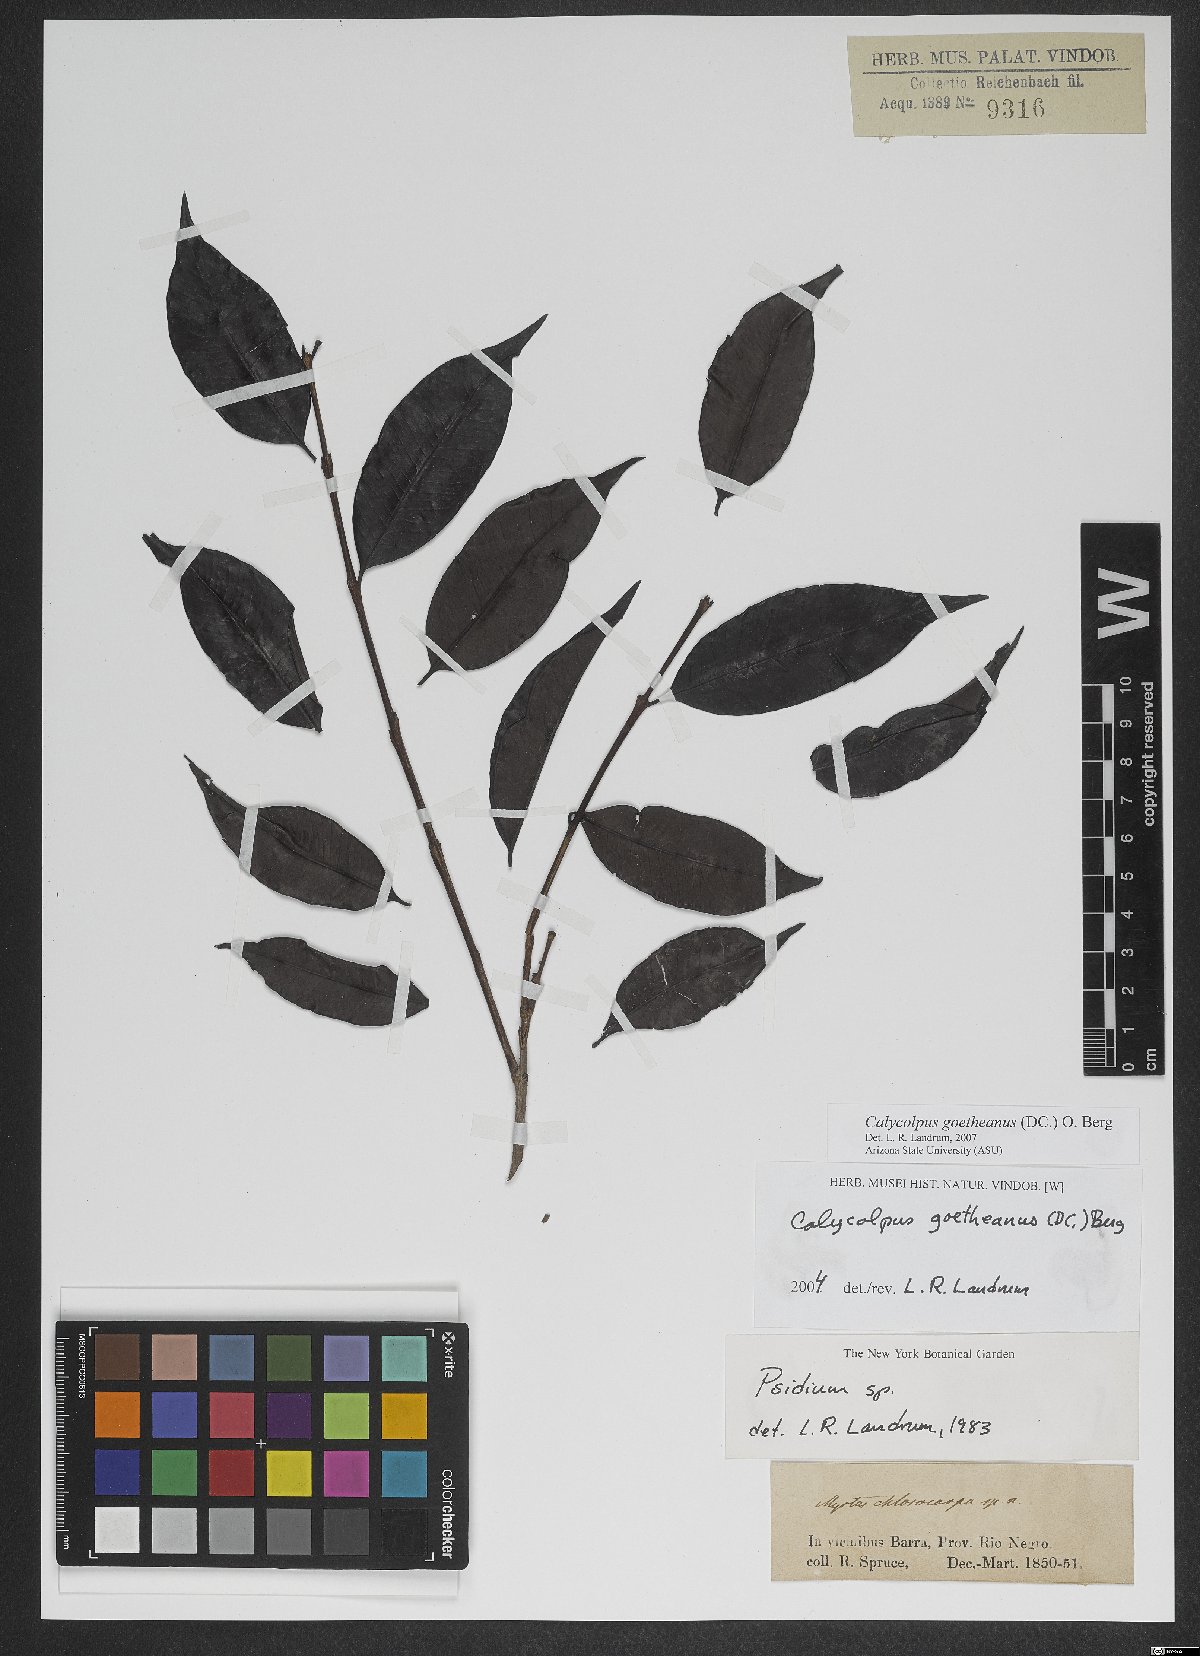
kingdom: Plantae
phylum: Tracheophyta
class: Magnoliopsida
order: Myrtales
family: Myrtaceae
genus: Calycolpus
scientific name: Calycolpus goetheanus
